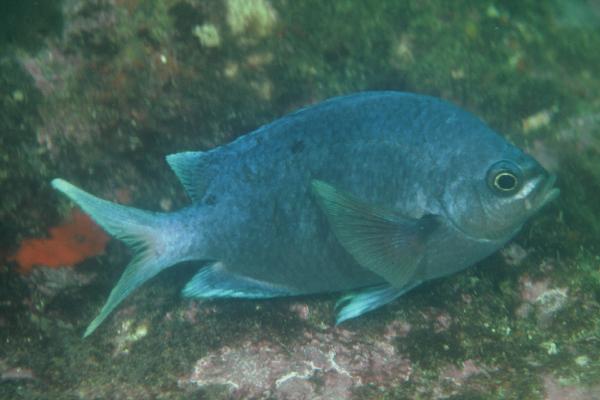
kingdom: Animalia
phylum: Chordata
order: Perciformes
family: Pomacentridae
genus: Chromis
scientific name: Chromis dispilus
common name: Demoiselle
